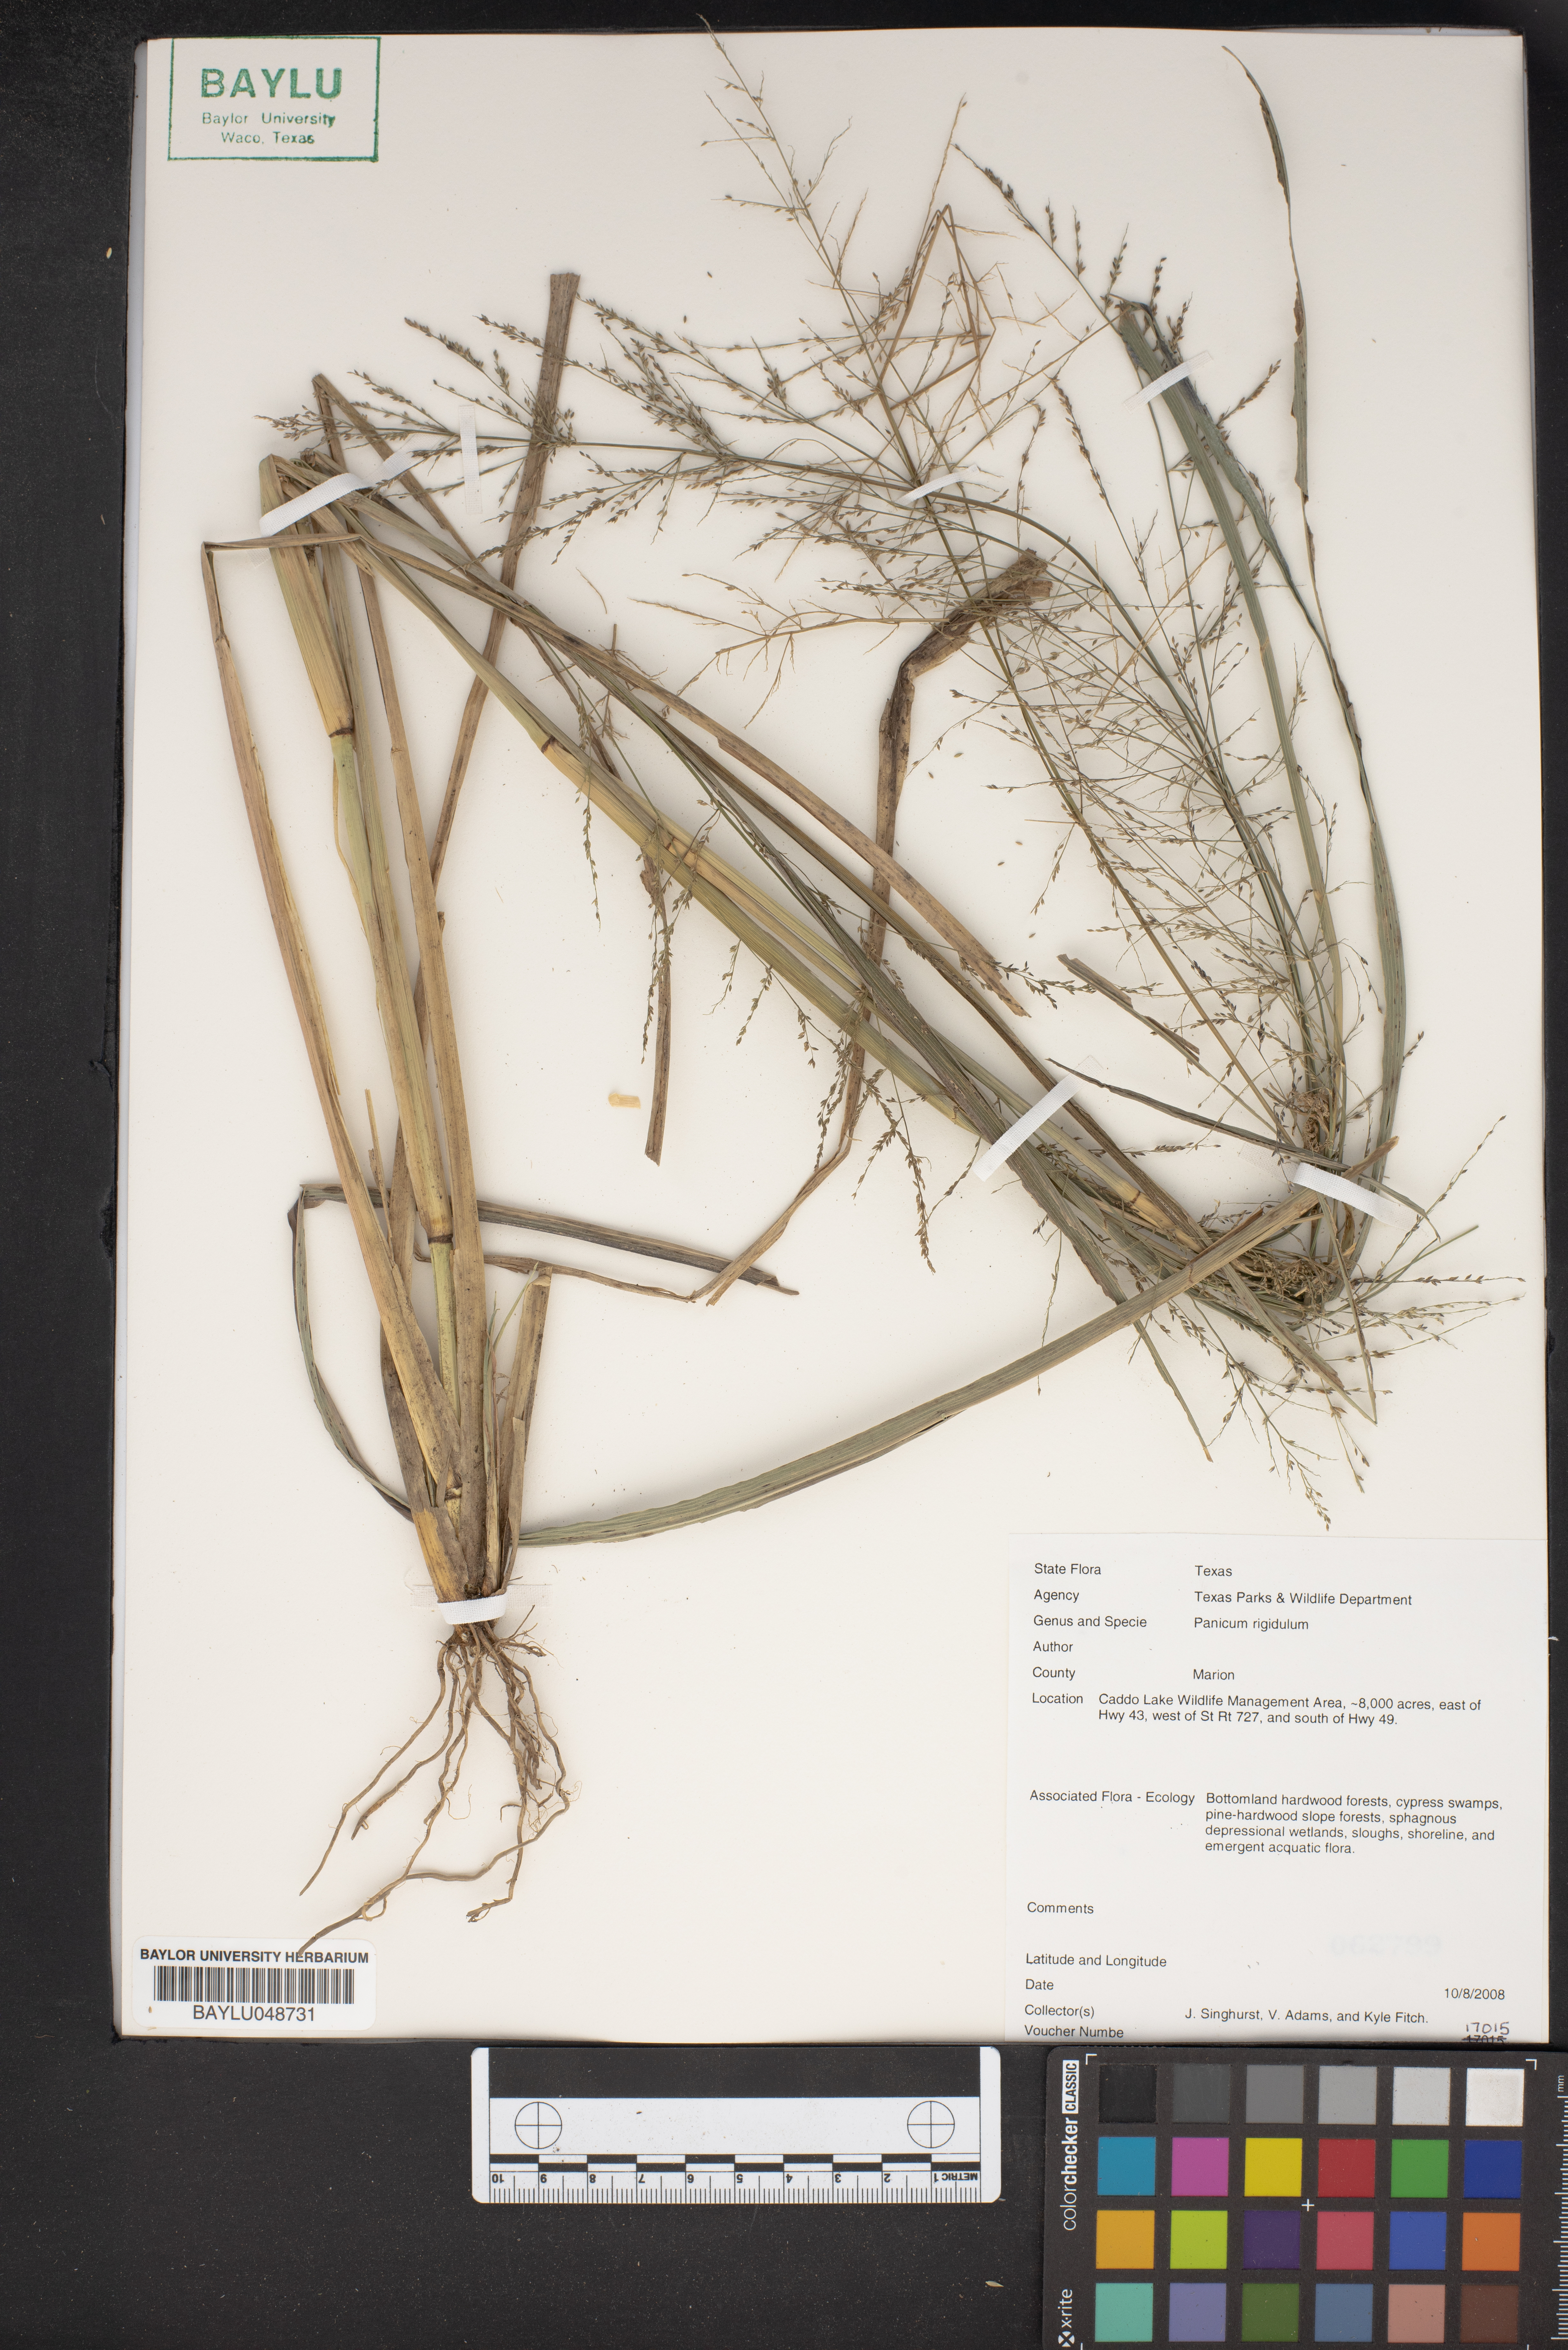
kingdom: Plantae
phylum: Tracheophyta
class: Liliopsida
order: Poales
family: Poaceae
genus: Coleataenia
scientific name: Coleataenia rigidula
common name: Redtop panicgrass
